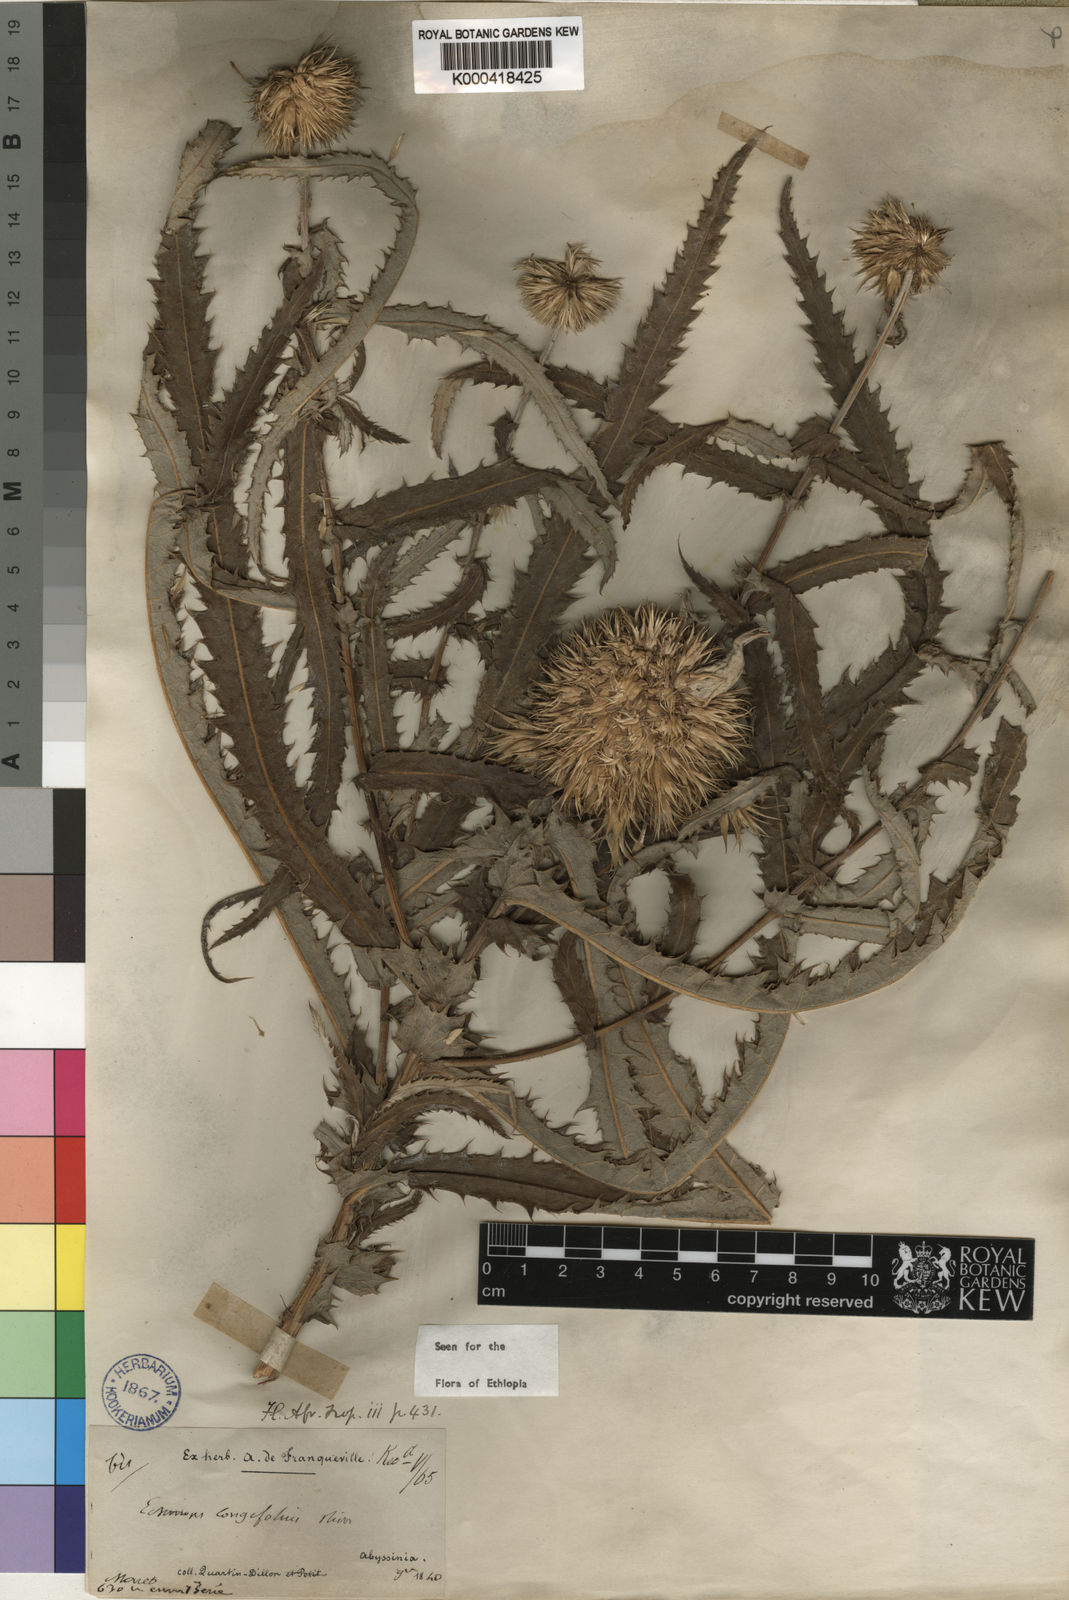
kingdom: Plantae
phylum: Tracheophyta
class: Magnoliopsida
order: Asterales
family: Asteraceae
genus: Echinops
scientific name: Echinops longifolius
